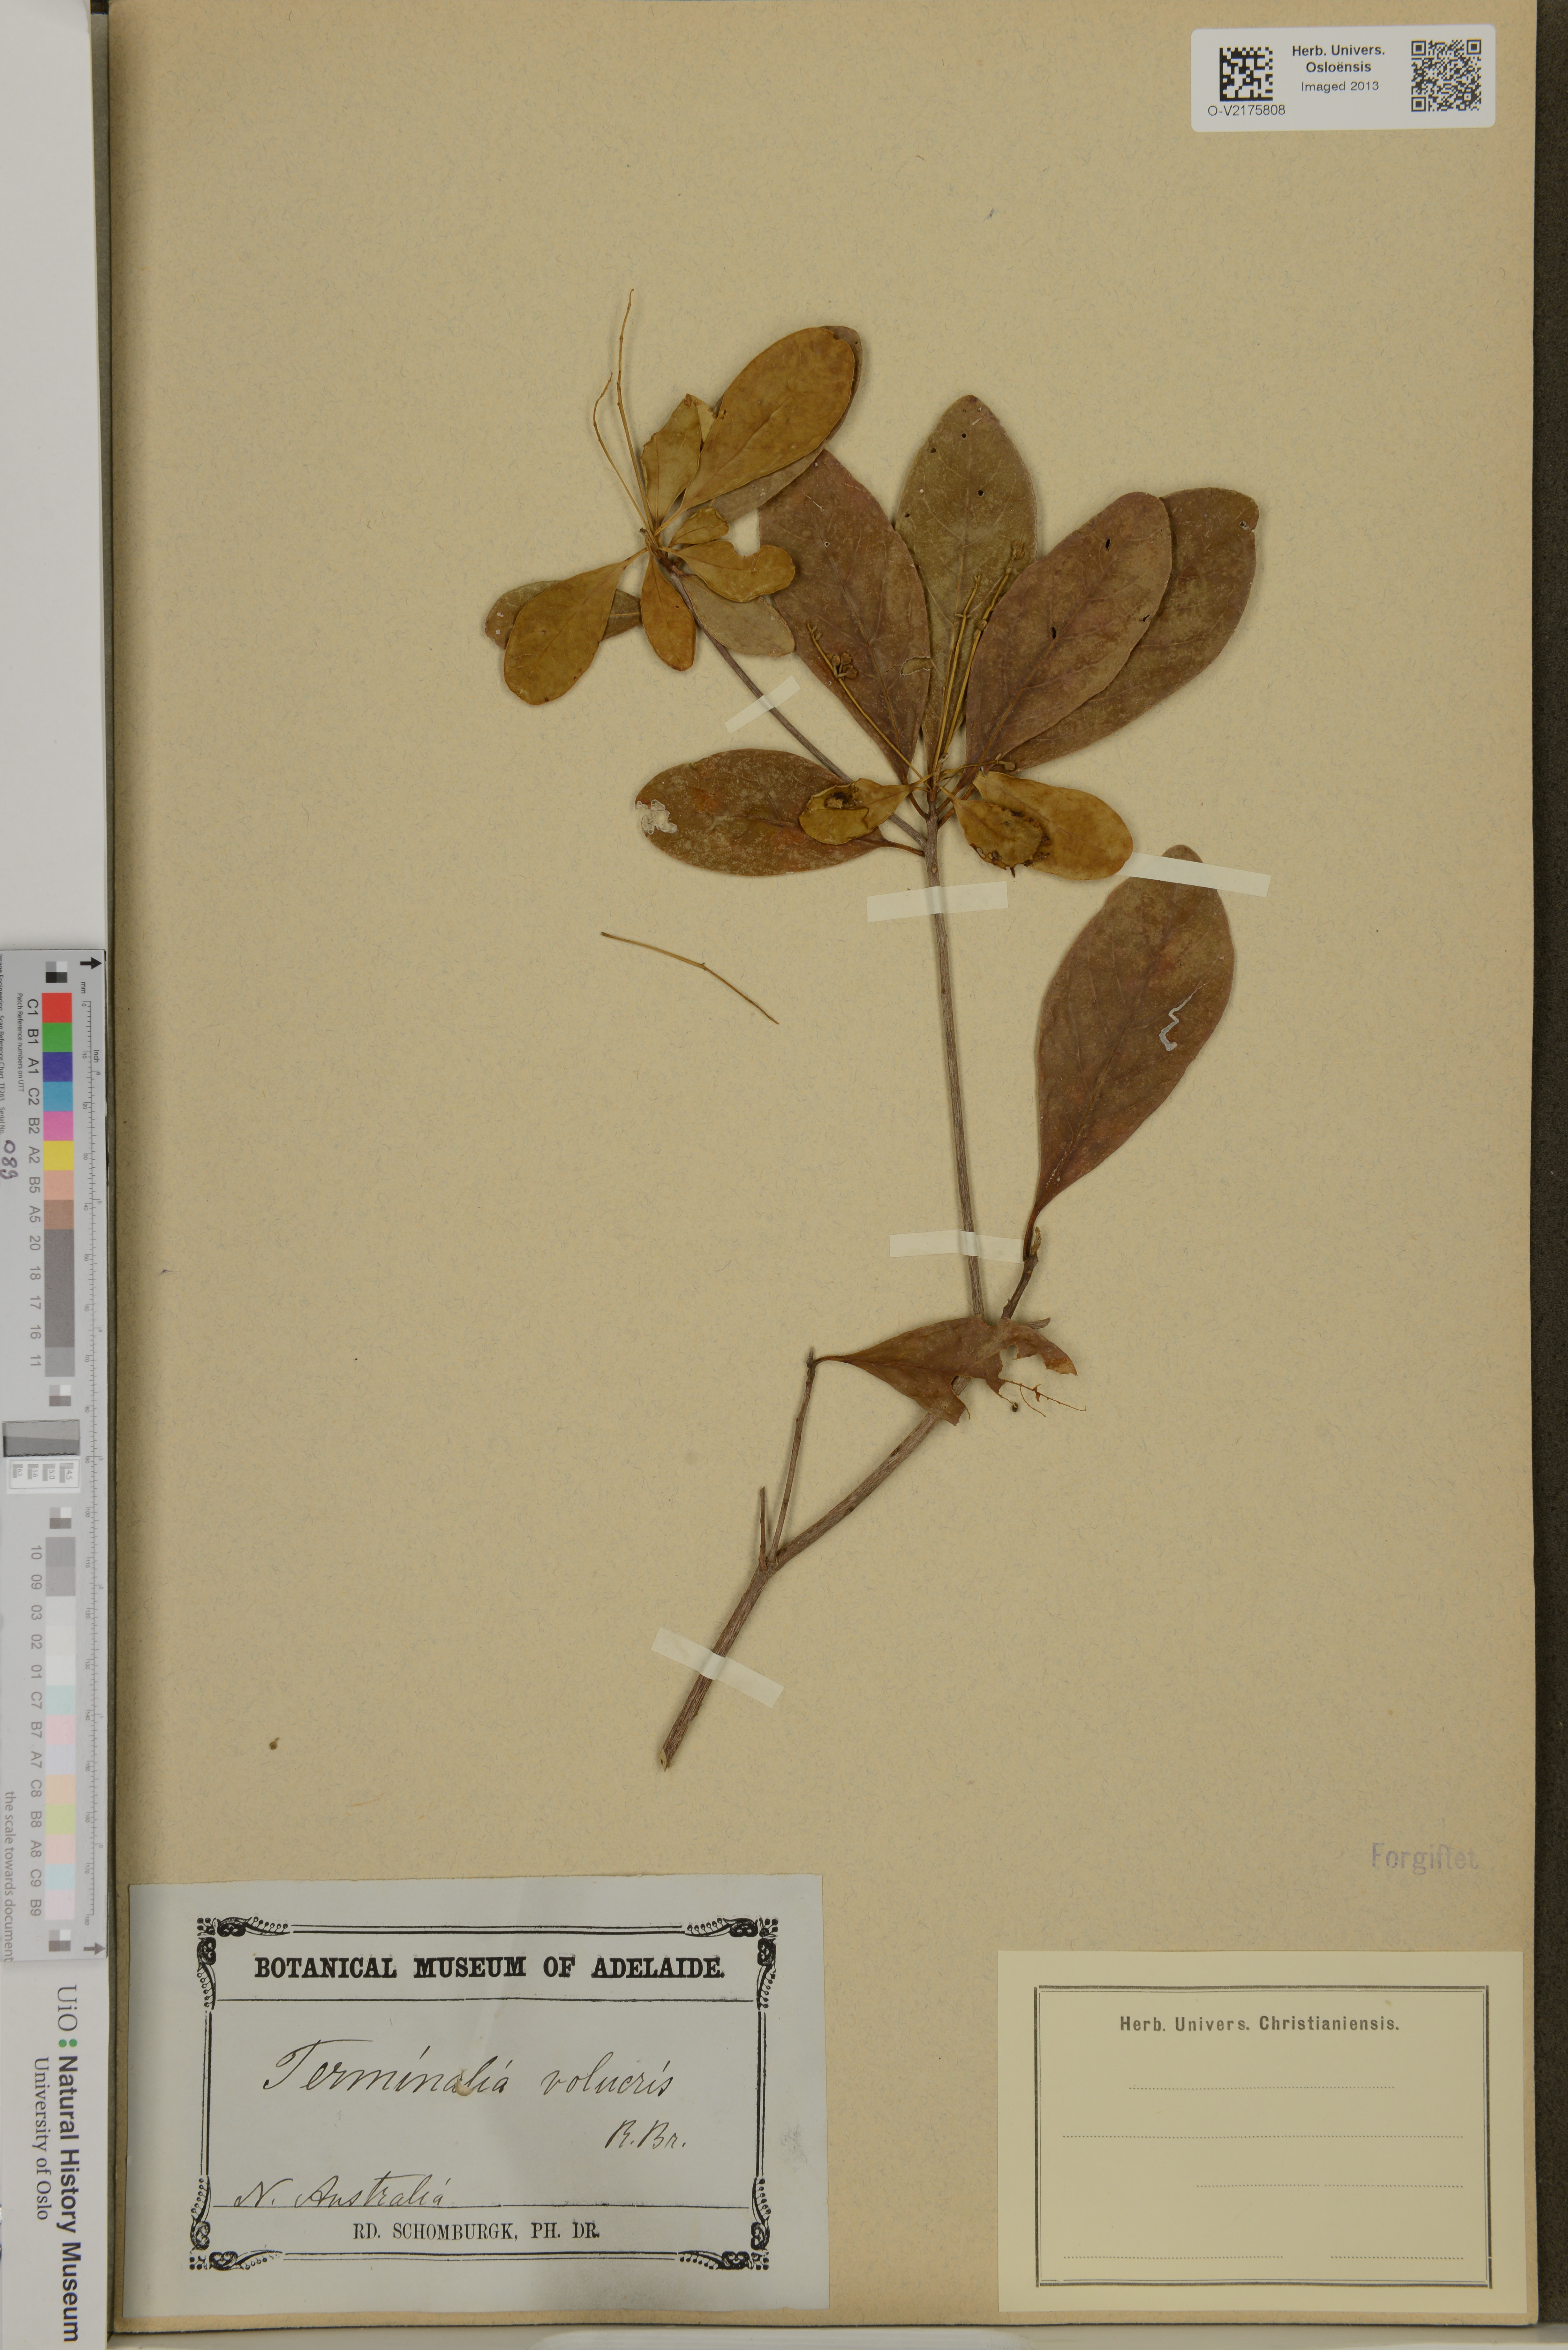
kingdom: Plantae
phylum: Tracheophyta
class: Magnoliopsida
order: Myrtales
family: Combretaceae
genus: Terminalia
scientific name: Terminalia volucris
